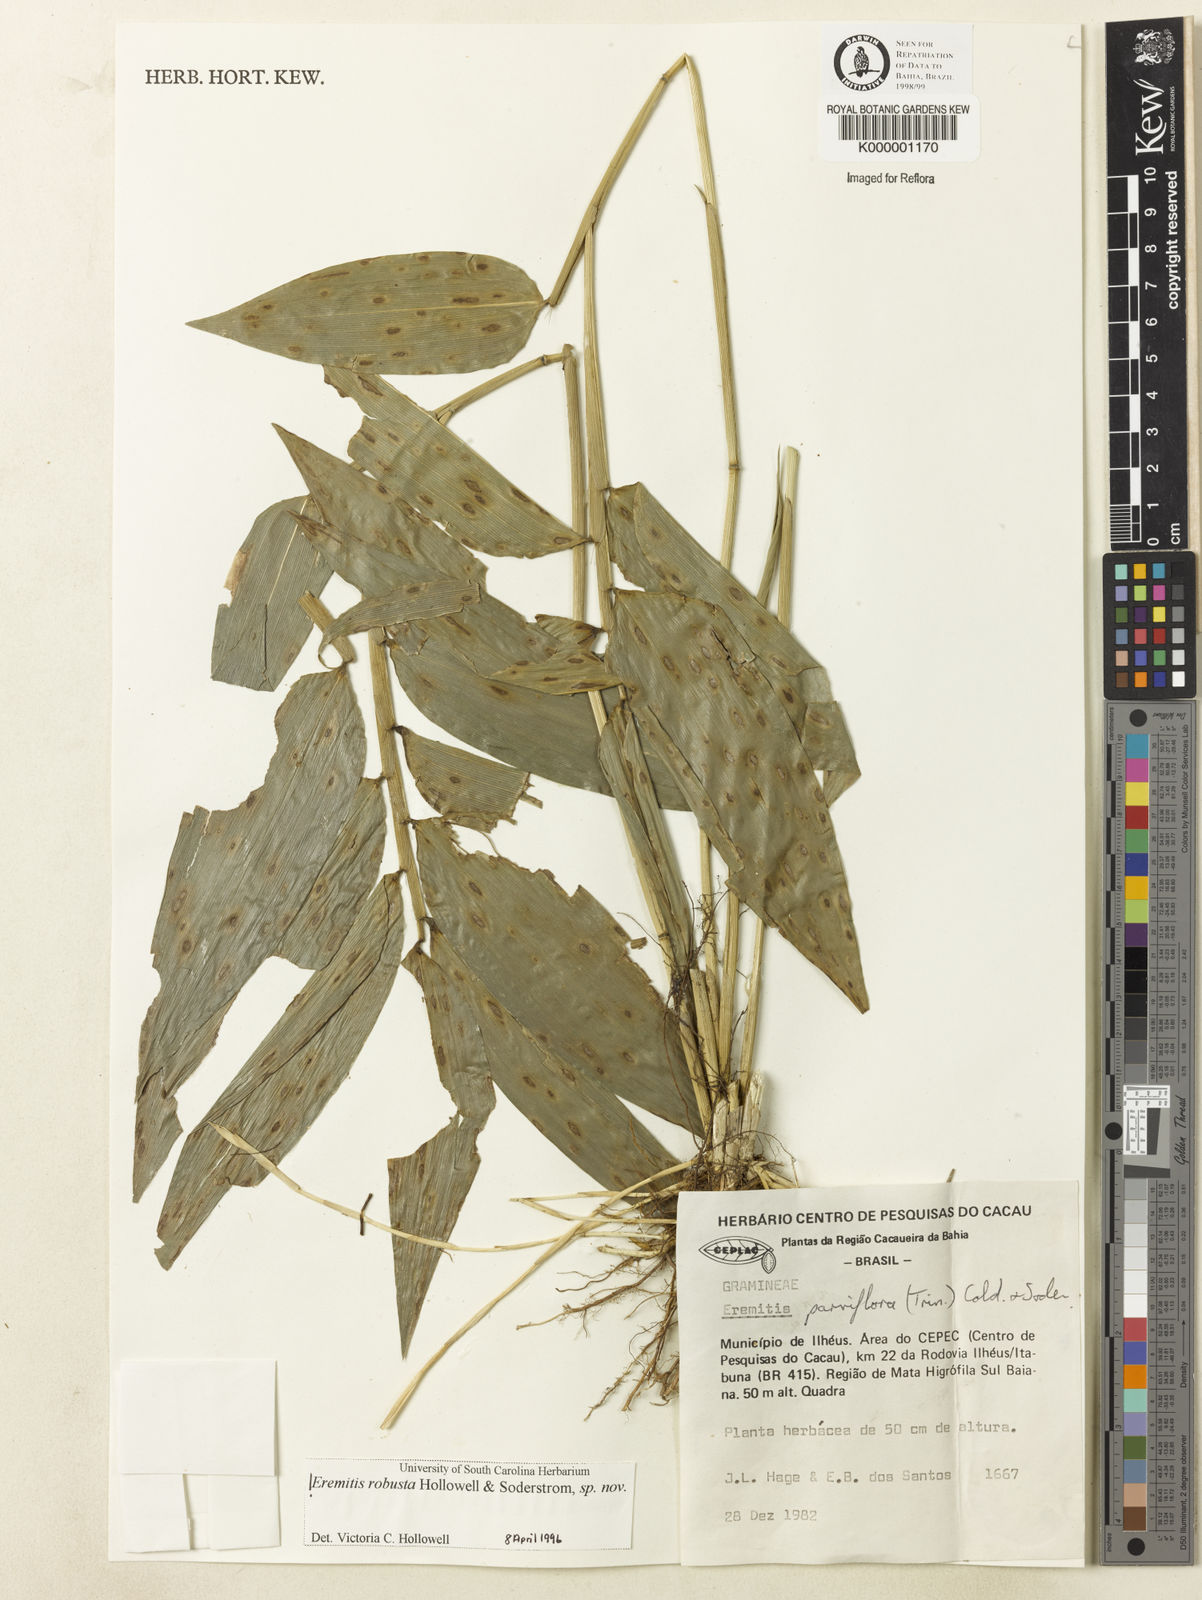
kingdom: Plantae
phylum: Tracheophyta
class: Liliopsida
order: Poales
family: Poaceae
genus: Eremitis
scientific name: Eremitis
